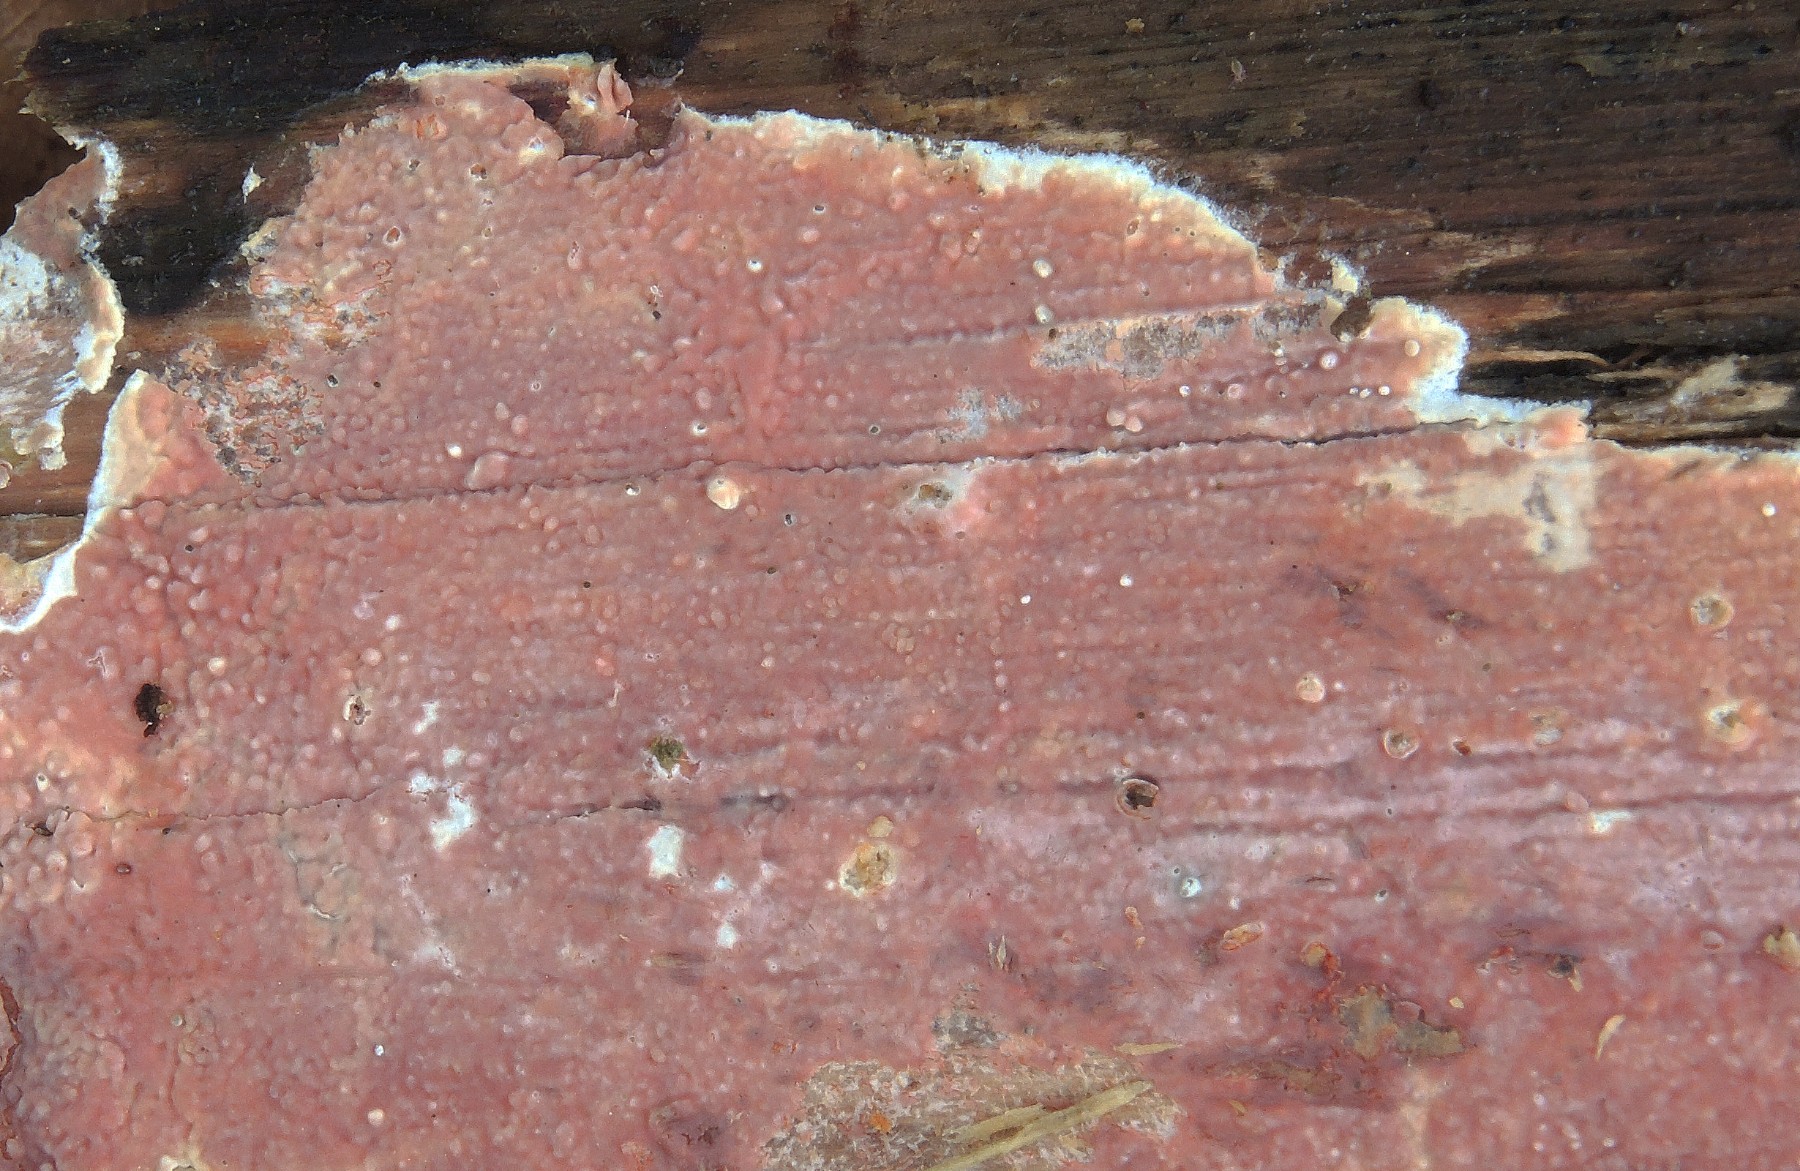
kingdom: Fungi
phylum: Basidiomycota
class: Agaricomycetes
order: Polyporales
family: Meruliaceae
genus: Mycoacia
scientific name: Mycoacia livida
